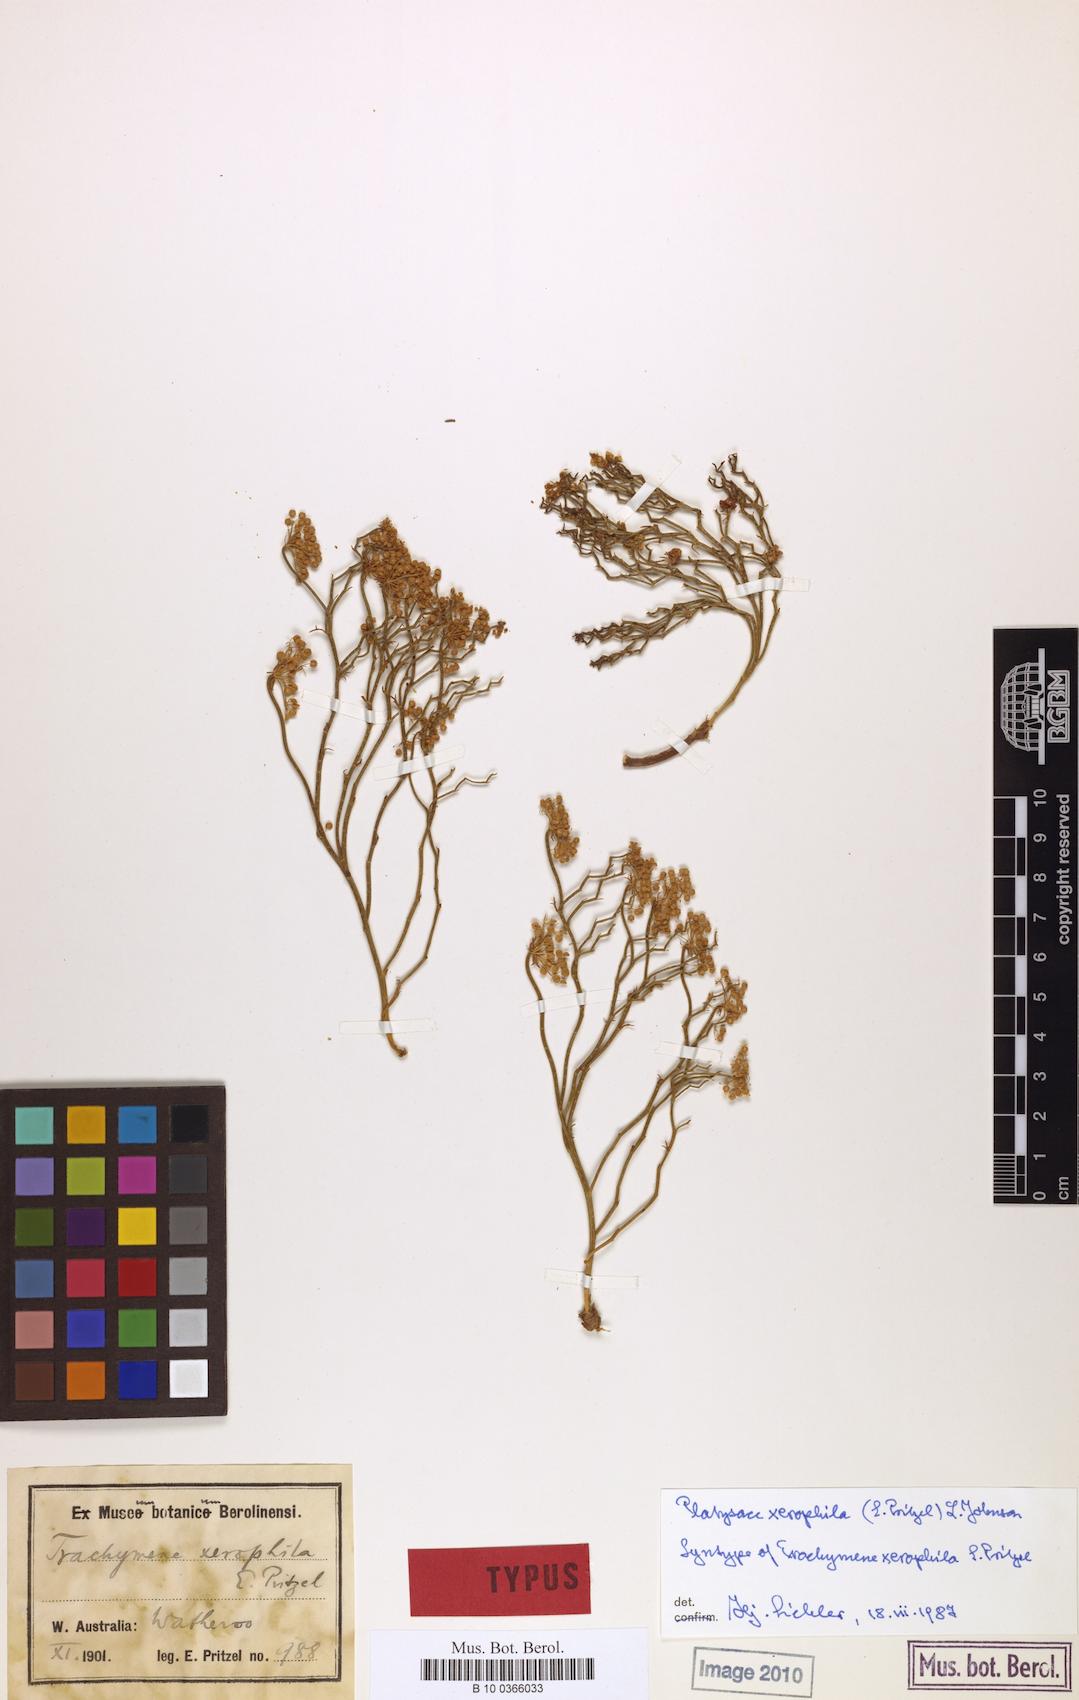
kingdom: Plantae
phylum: Tracheophyta
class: Magnoliopsida
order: Apiales
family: Apiaceae
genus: Platysace
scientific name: Platysace xerophila
